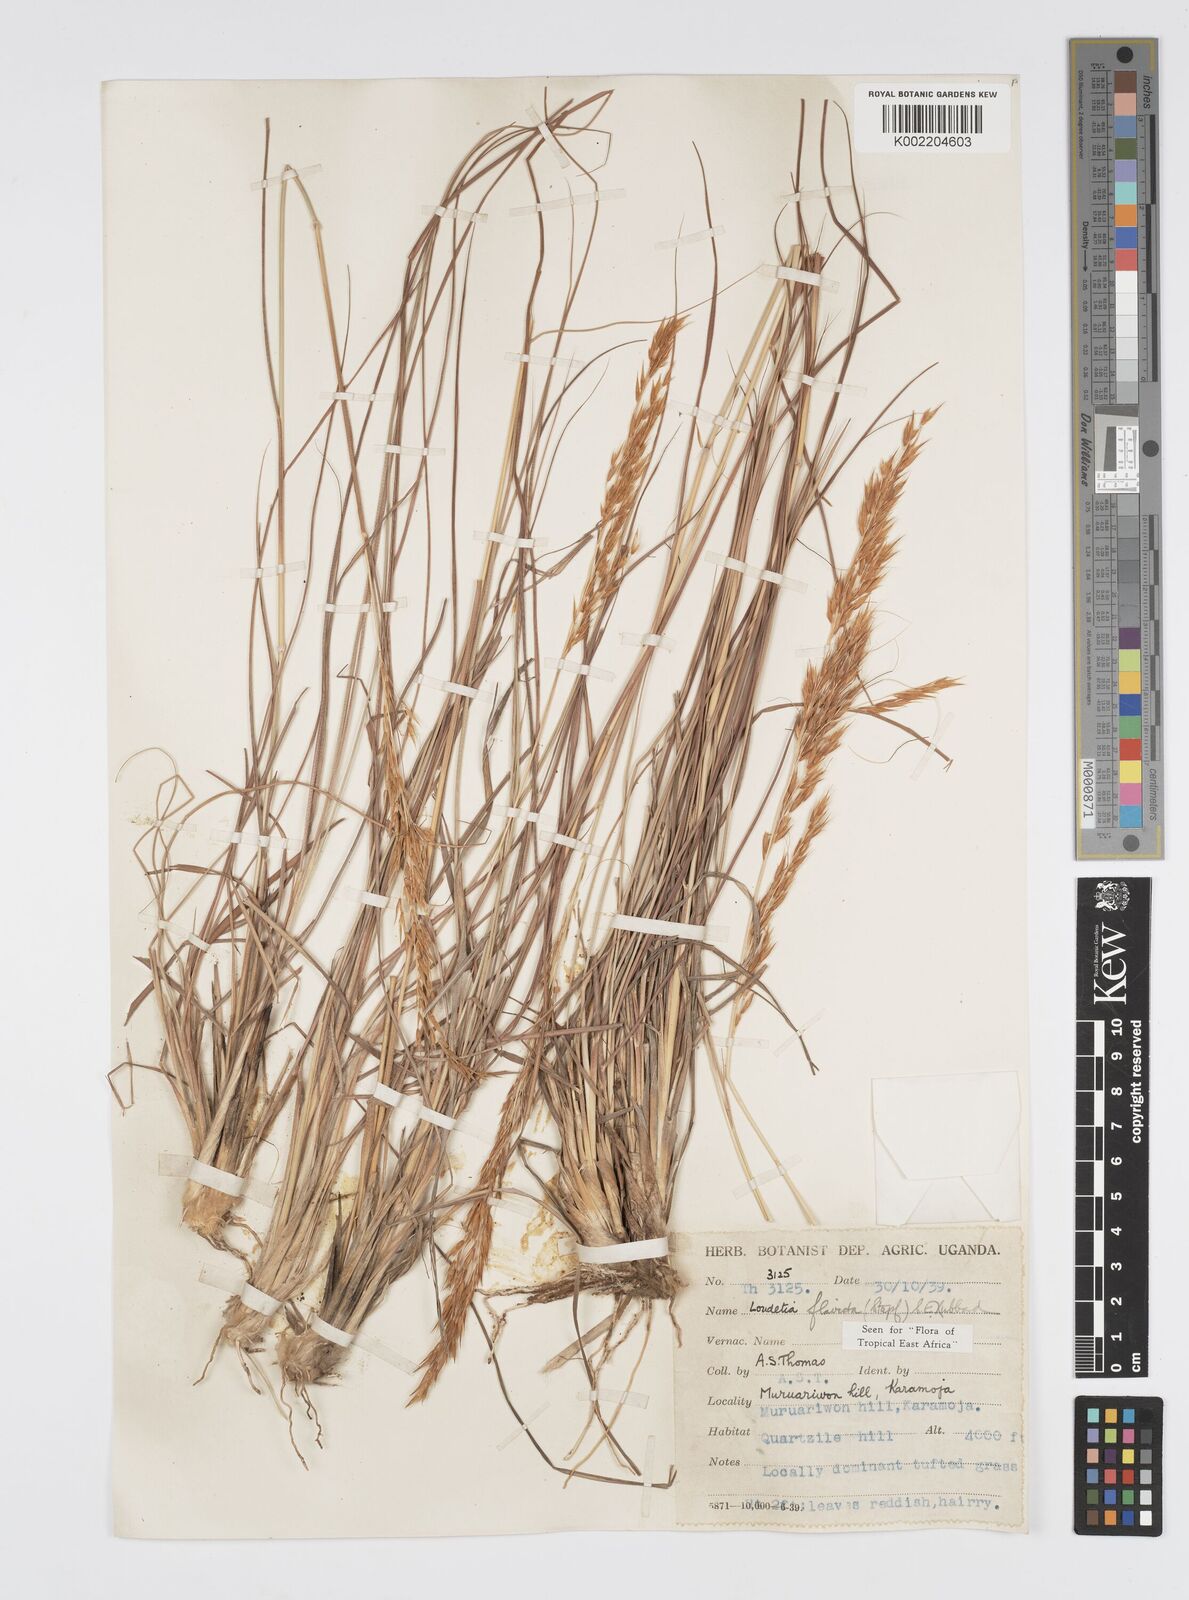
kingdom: Plantae
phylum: Tracheophyta
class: Liliopsida
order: Poales
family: Poaceae
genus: Loudetia
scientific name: Loudetia flavida
